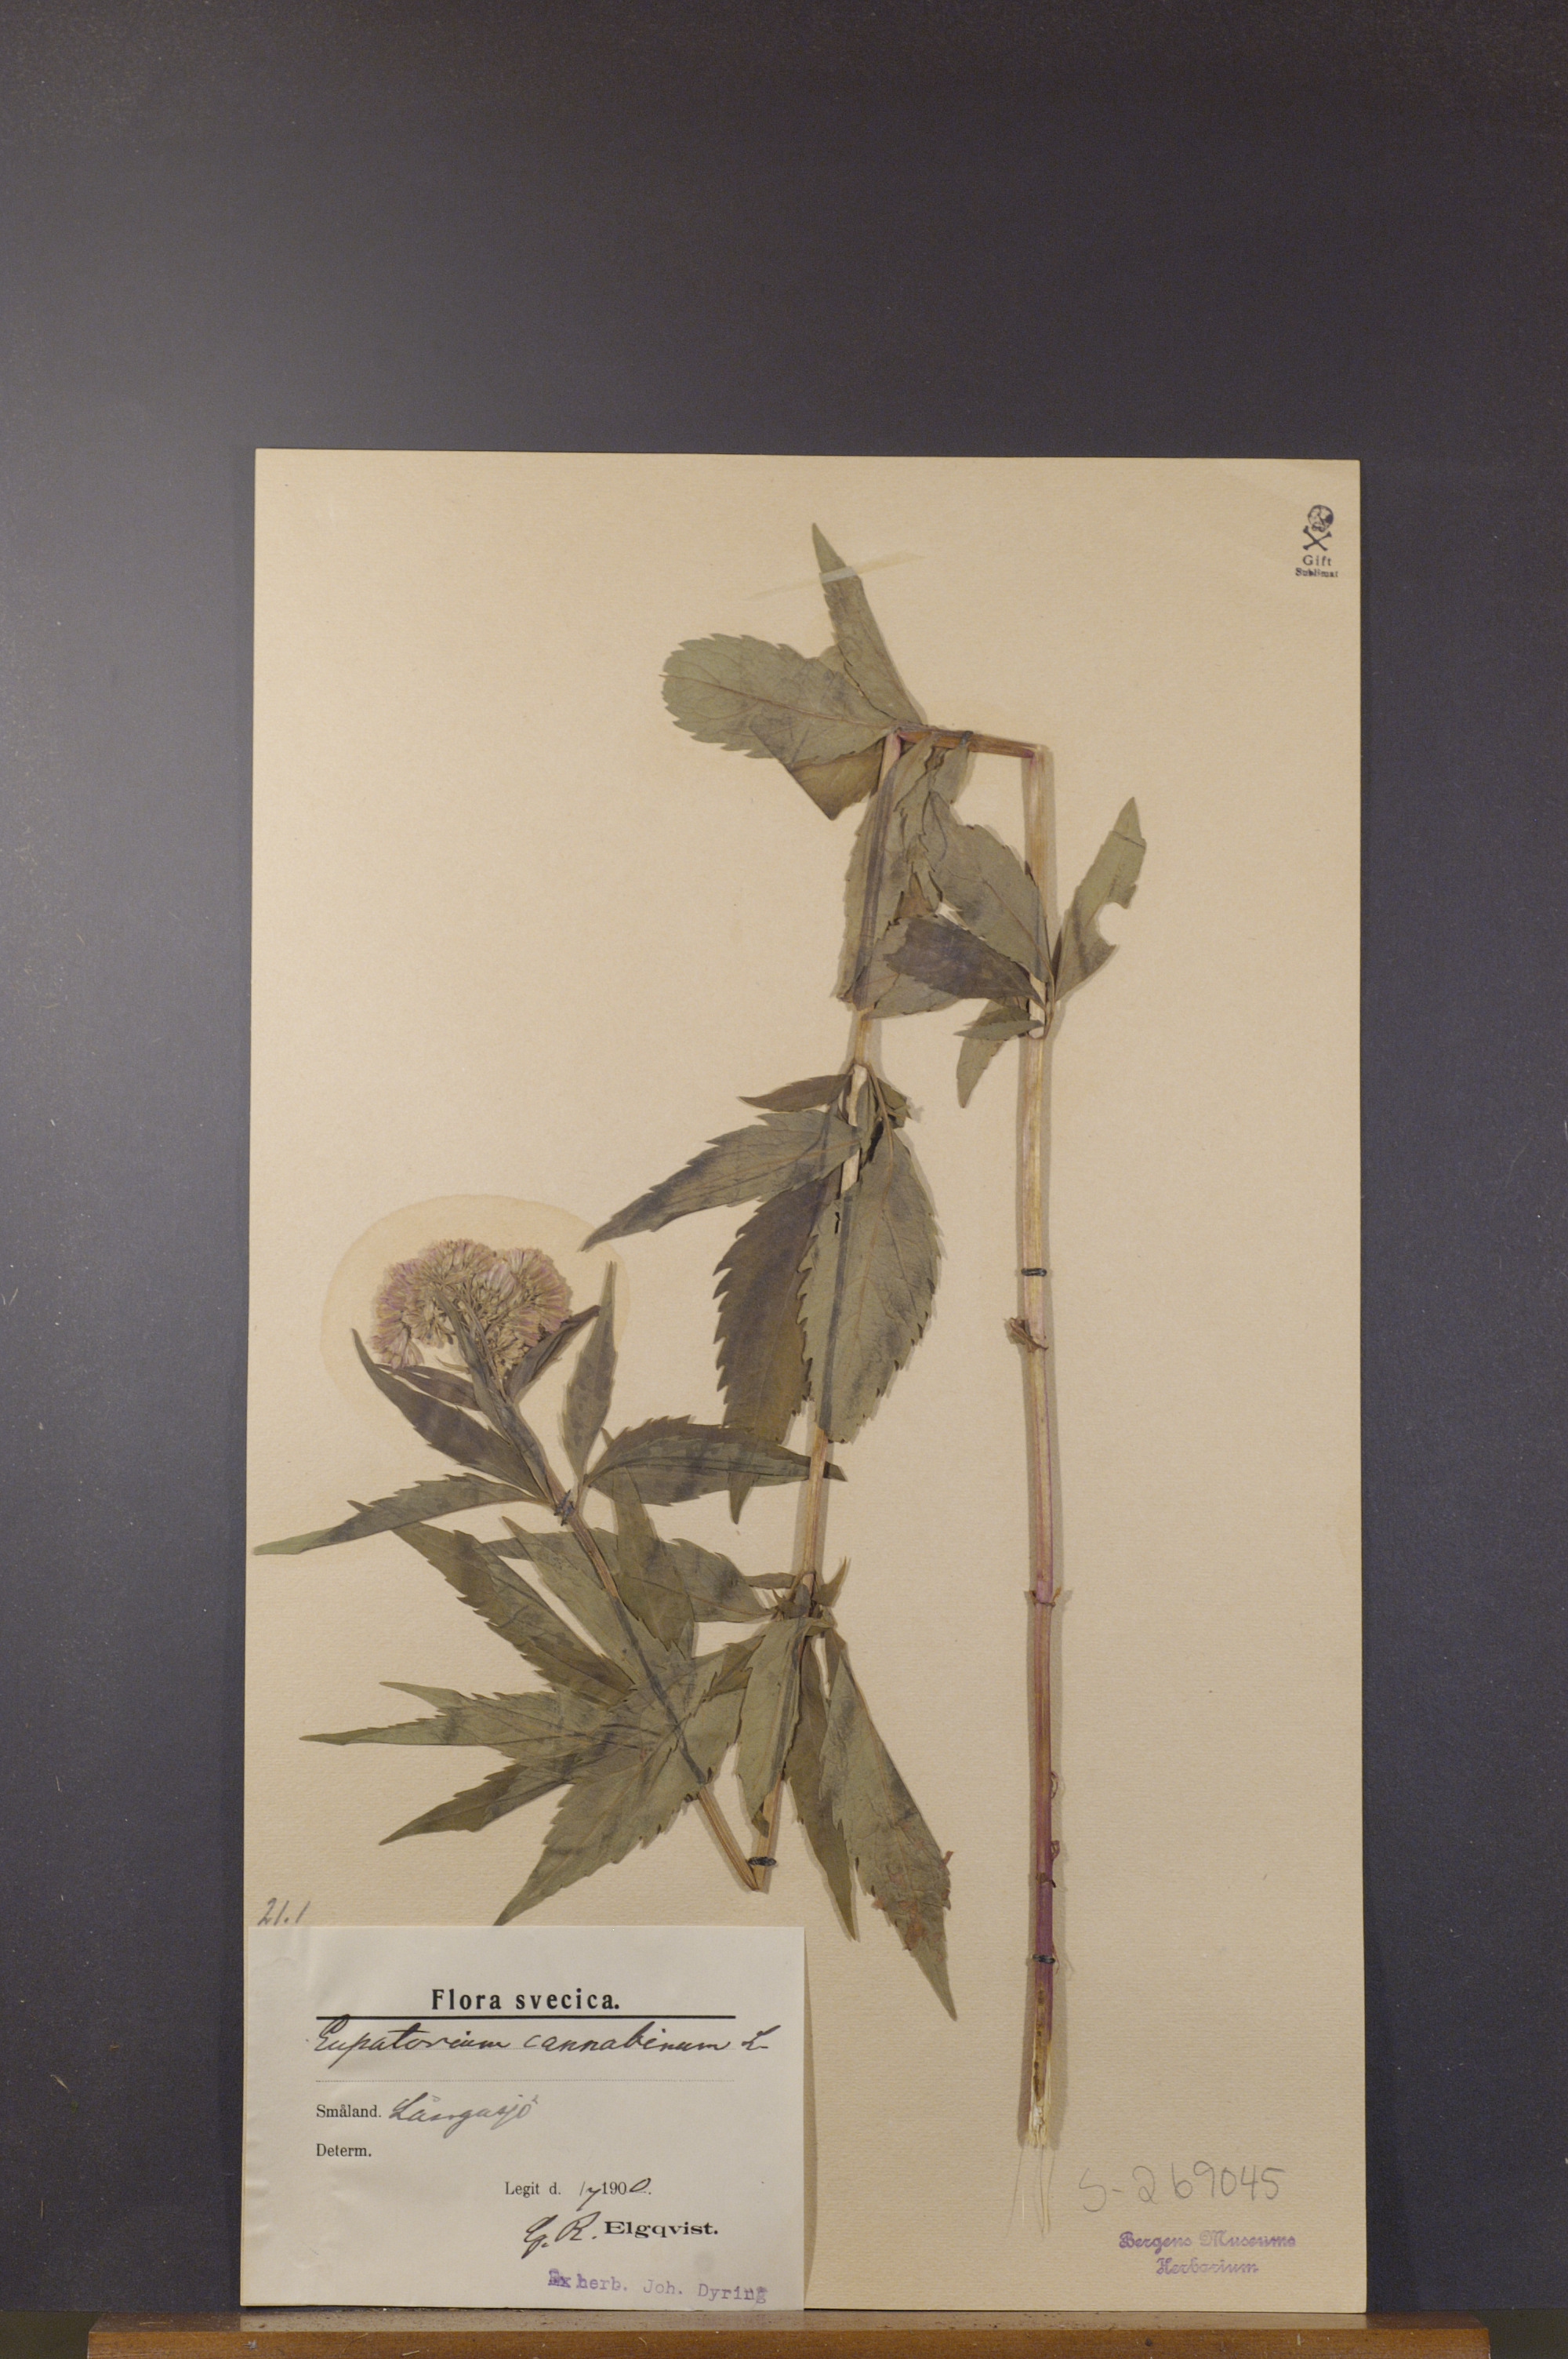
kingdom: Plantae
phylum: Tracheophyta
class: Magnoliopsida
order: Asterales
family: Asteraceae
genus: Eupatorium
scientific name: Eupatorium cannabinum
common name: Hemp-agrimony
